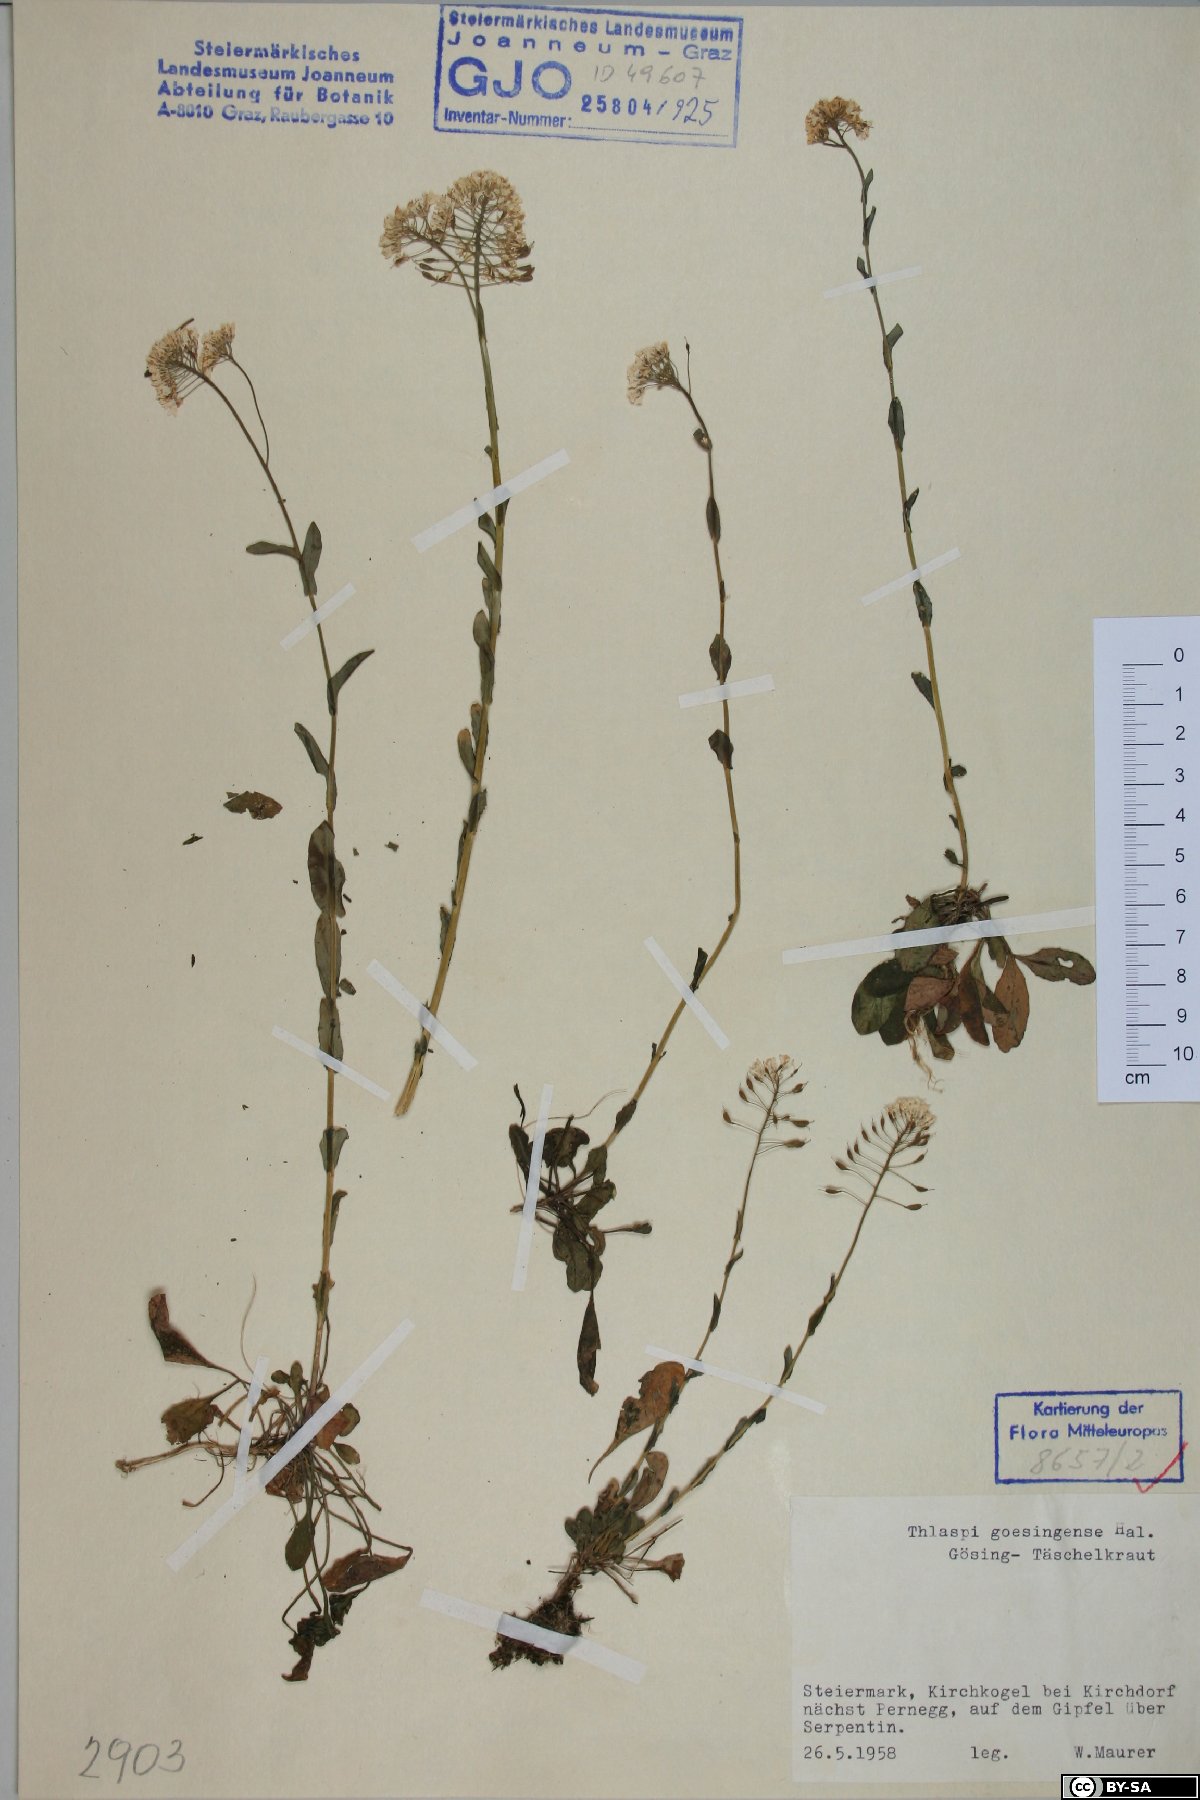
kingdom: Plantae
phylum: Tracheophyta
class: Magnoliopsida
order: Brassicales
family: Brassicaceae
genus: Noccaea
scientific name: Noccaea goesingensis
